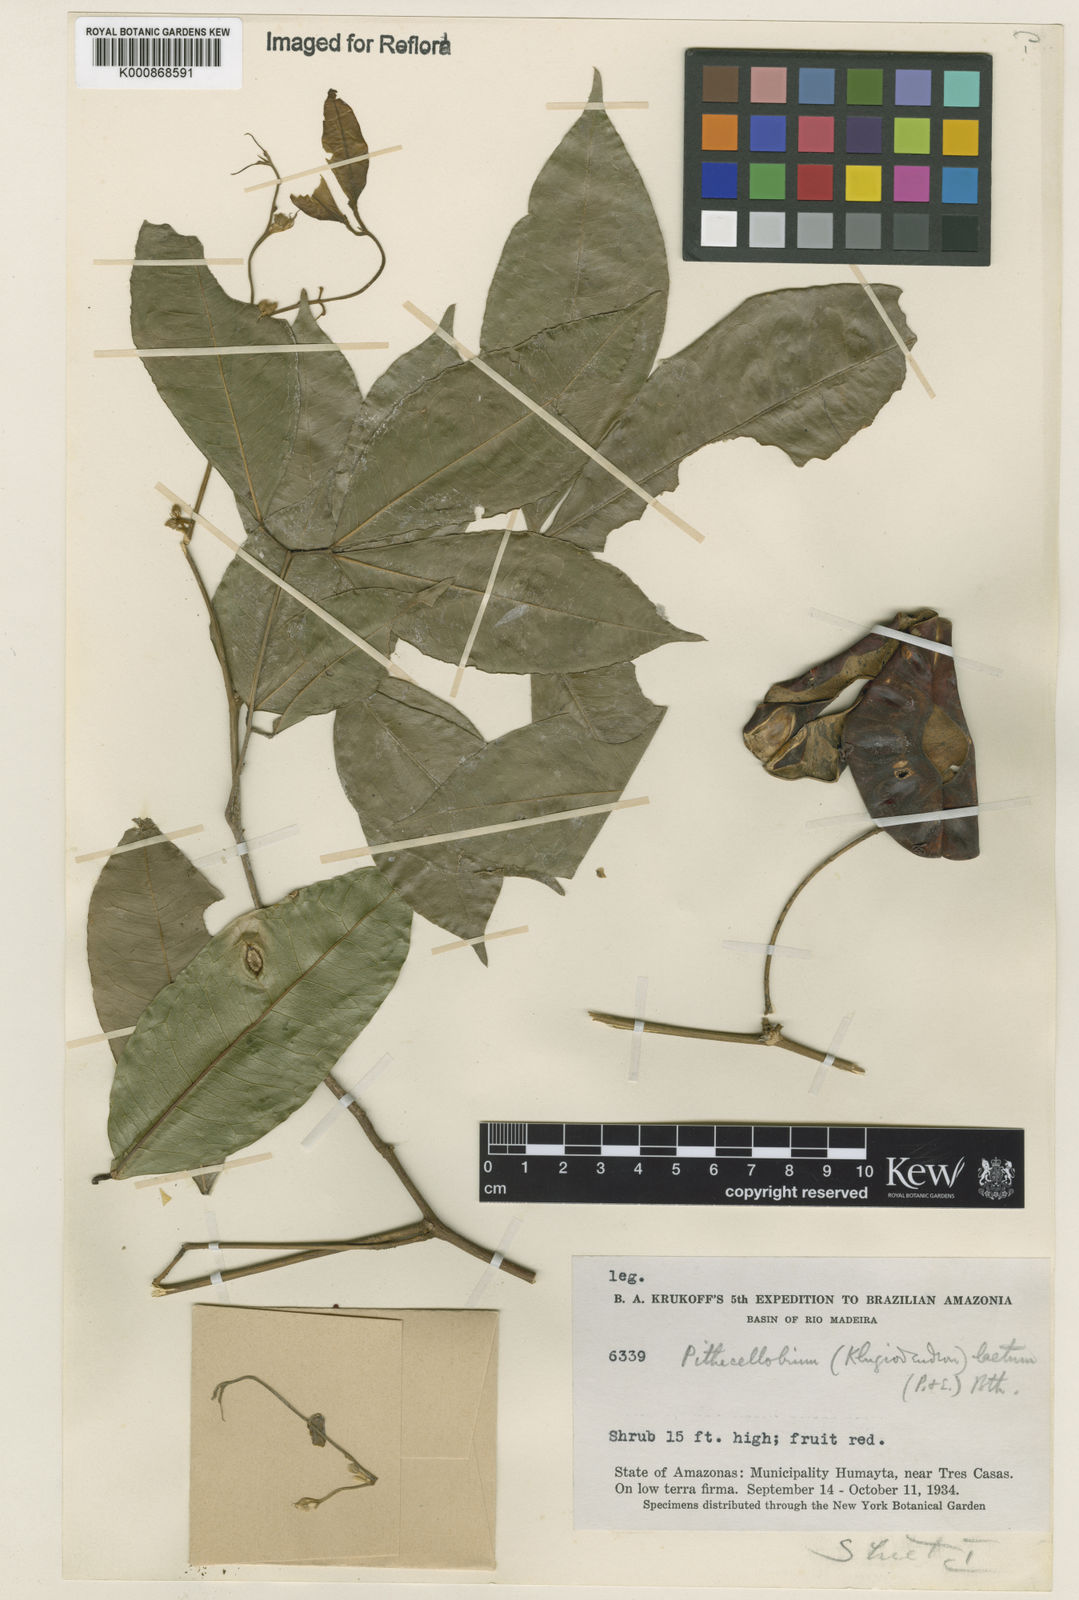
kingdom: Plantae
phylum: Tracheophyta
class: Magnoliopsida
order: Fabales
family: Fabaceae
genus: Jupunba
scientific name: Jupunba laeta
